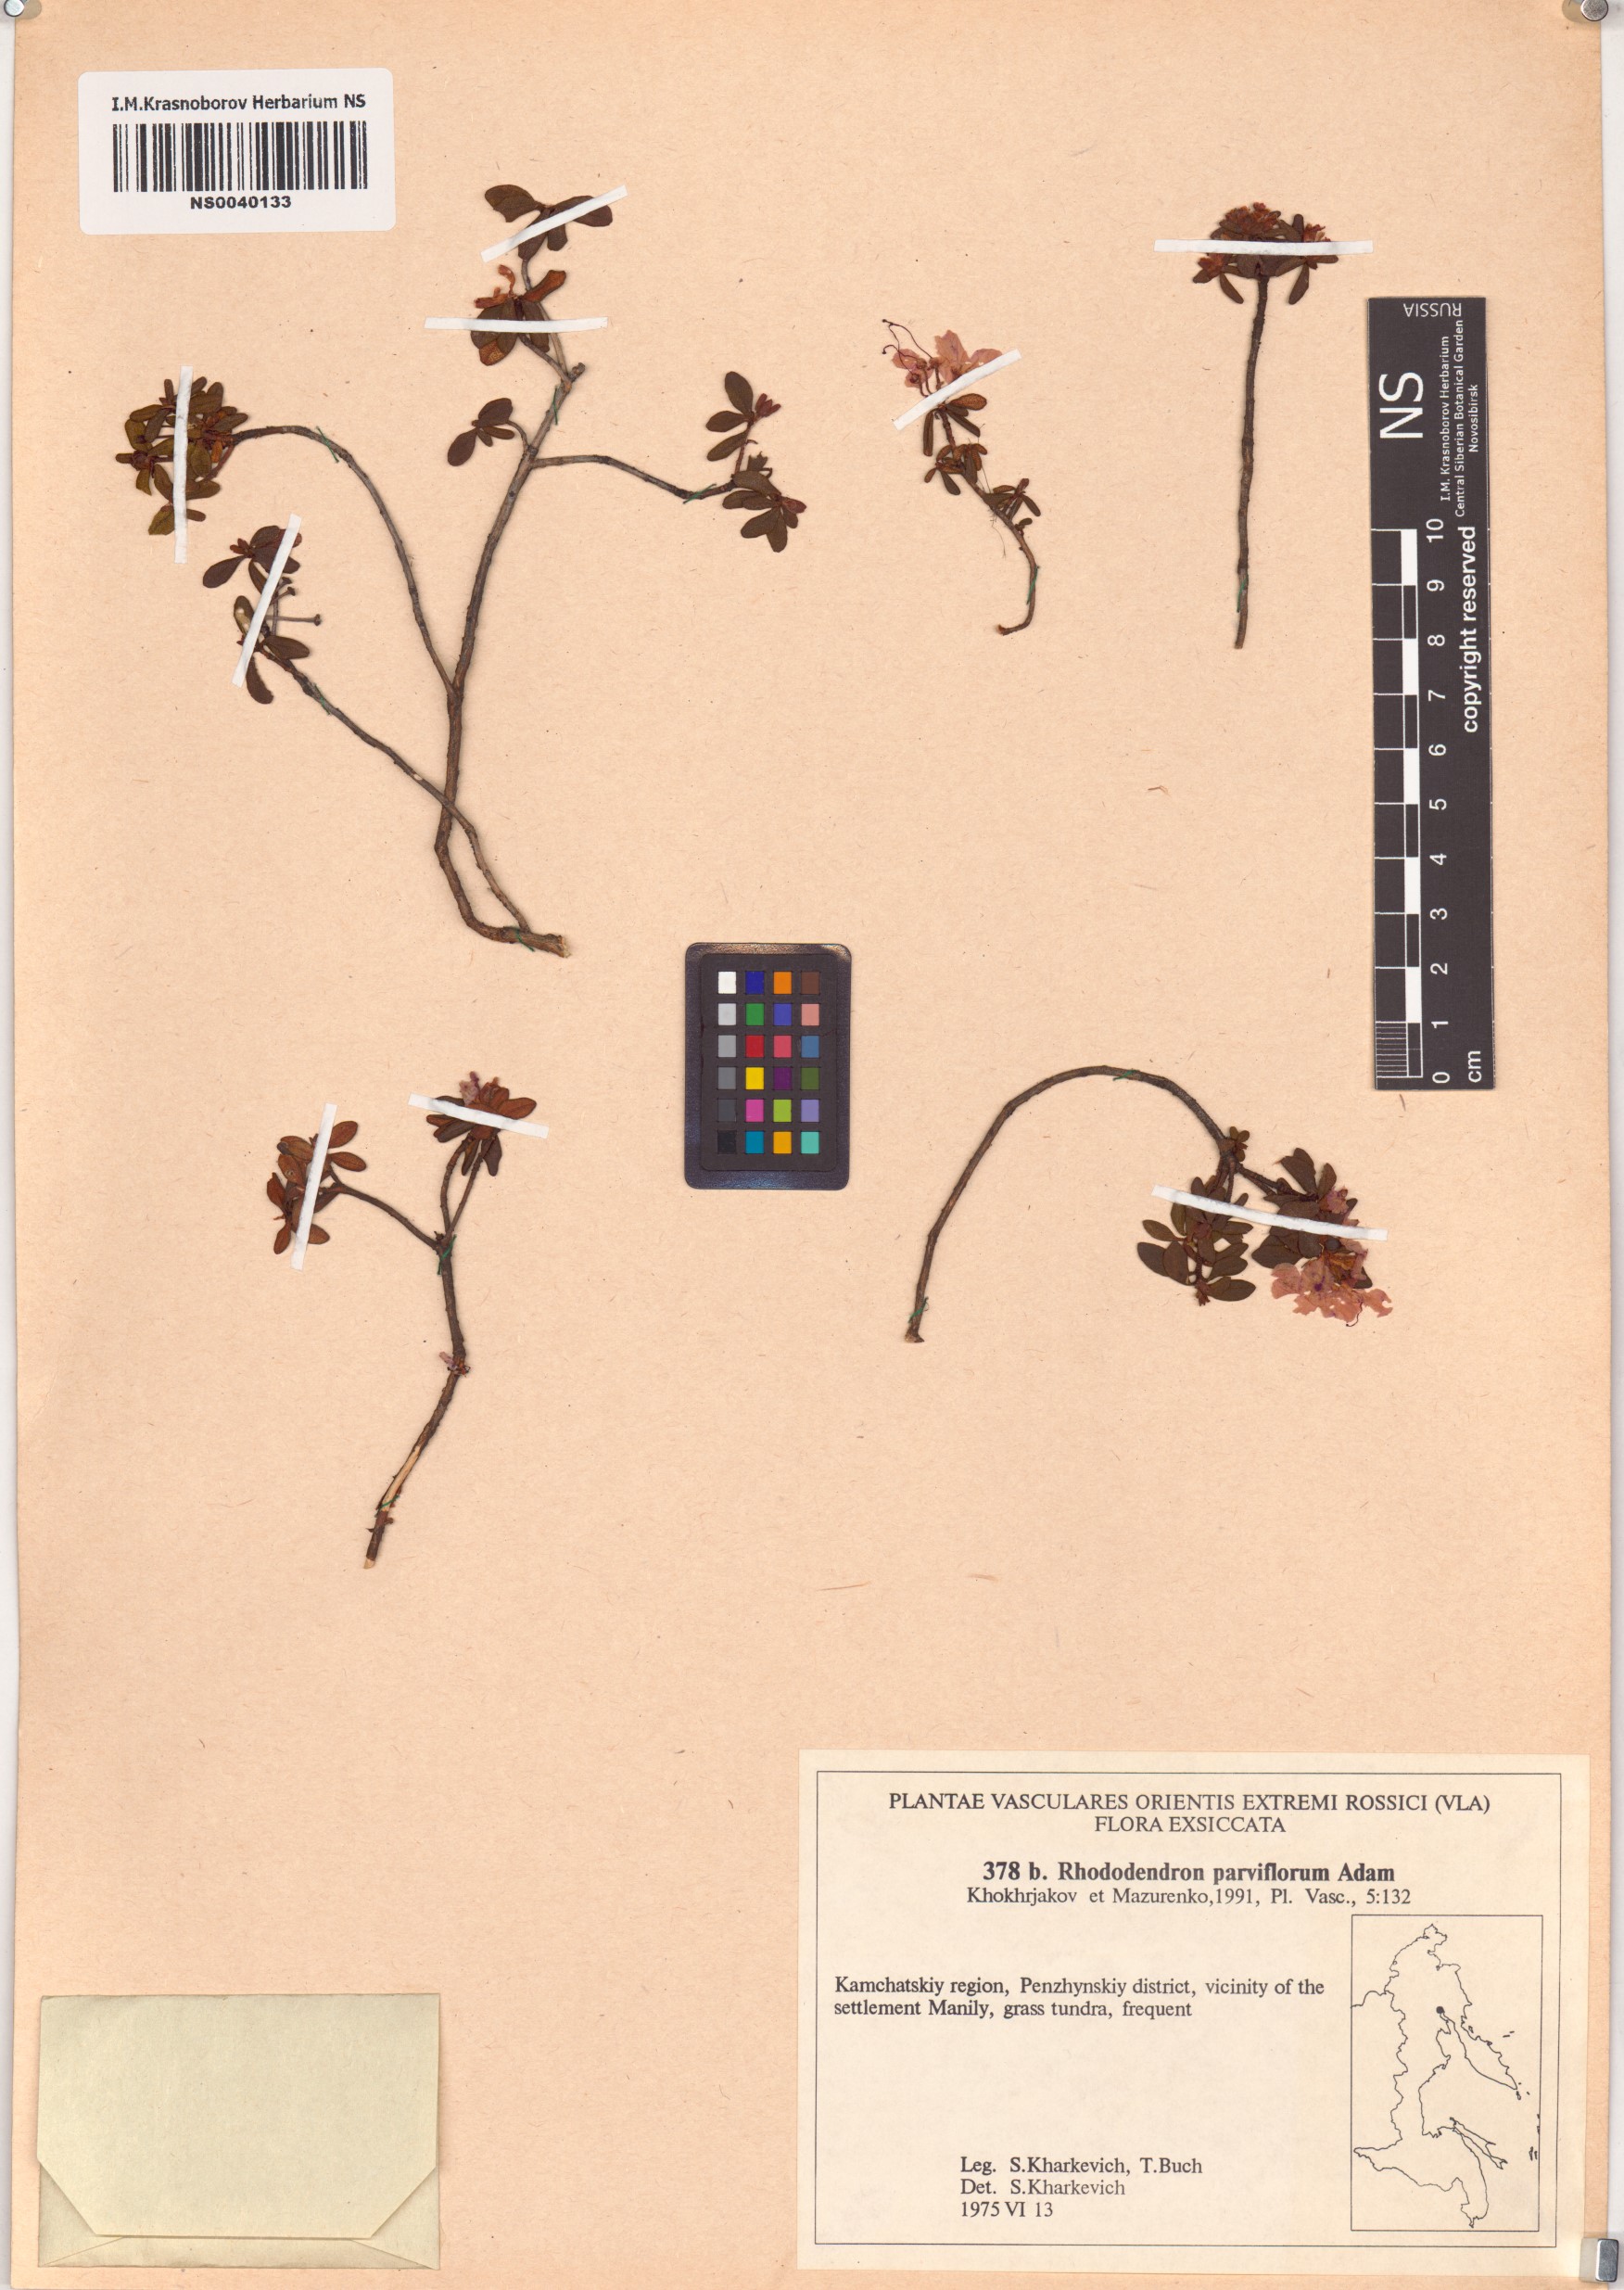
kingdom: Plantae
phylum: Tracheophyta
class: Magnoliopsida
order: Ericales
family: Ericaceae
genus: Rhododendron
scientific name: Rhododendron parvifolium
